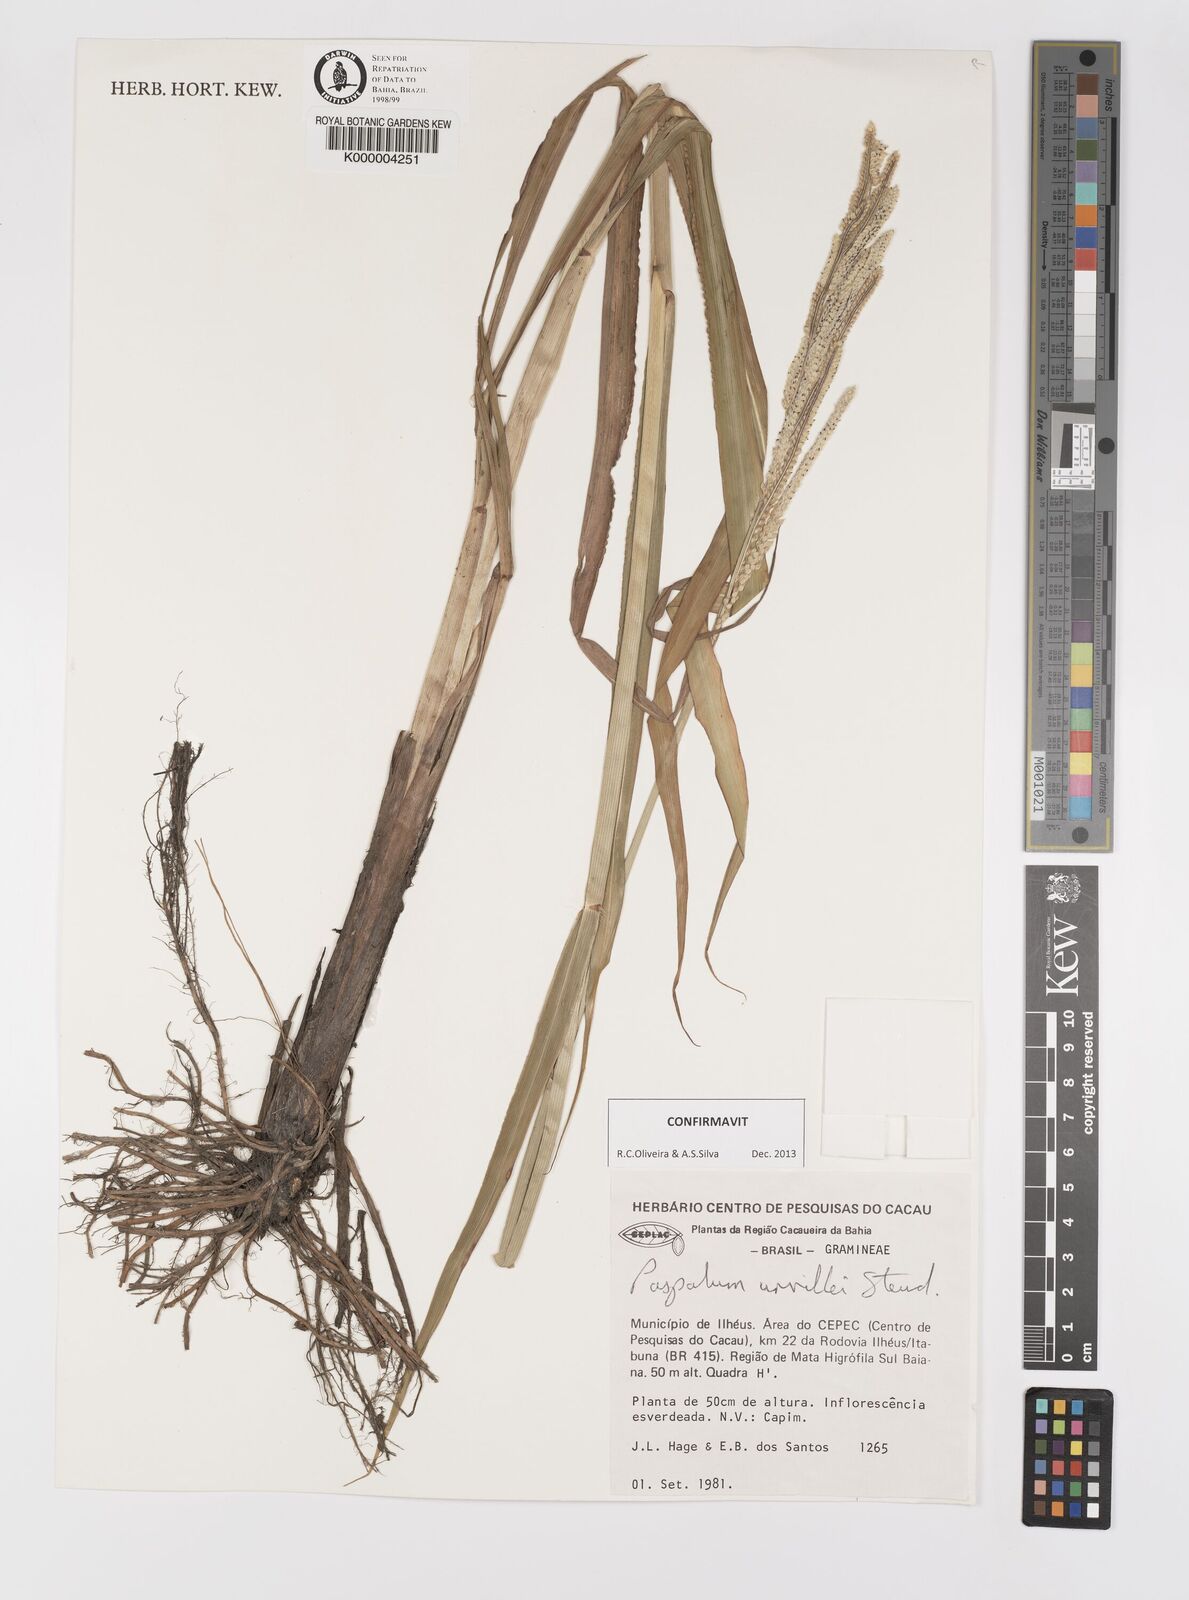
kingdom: Plantae
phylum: Tracheophyta
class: Liliopsida
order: Poales
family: Poaceae
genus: Paspalum
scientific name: Paspalum urvillei
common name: Vasey's grass
